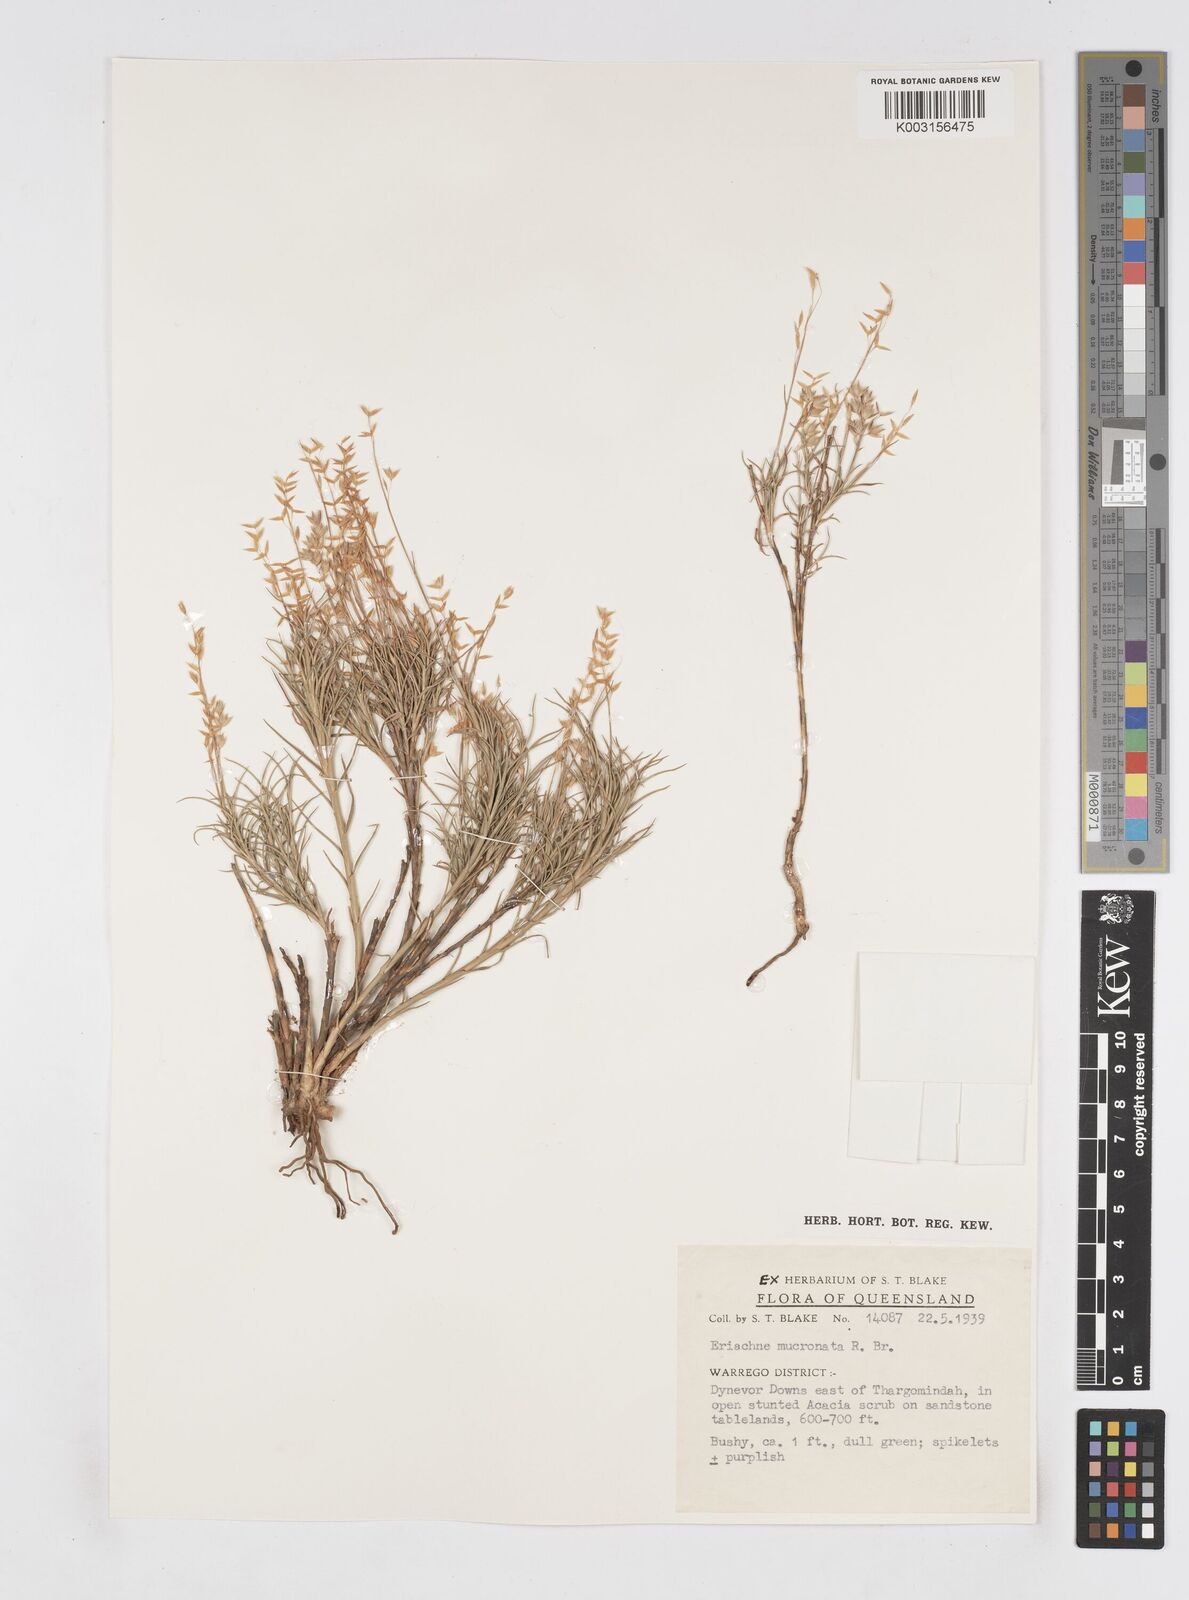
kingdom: Plantae
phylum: Tracheophyta
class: Liliopsida
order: Poales
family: Poaceae
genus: Eriachne
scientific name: Eriachne mucronata
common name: Mountain wanderrie grass
